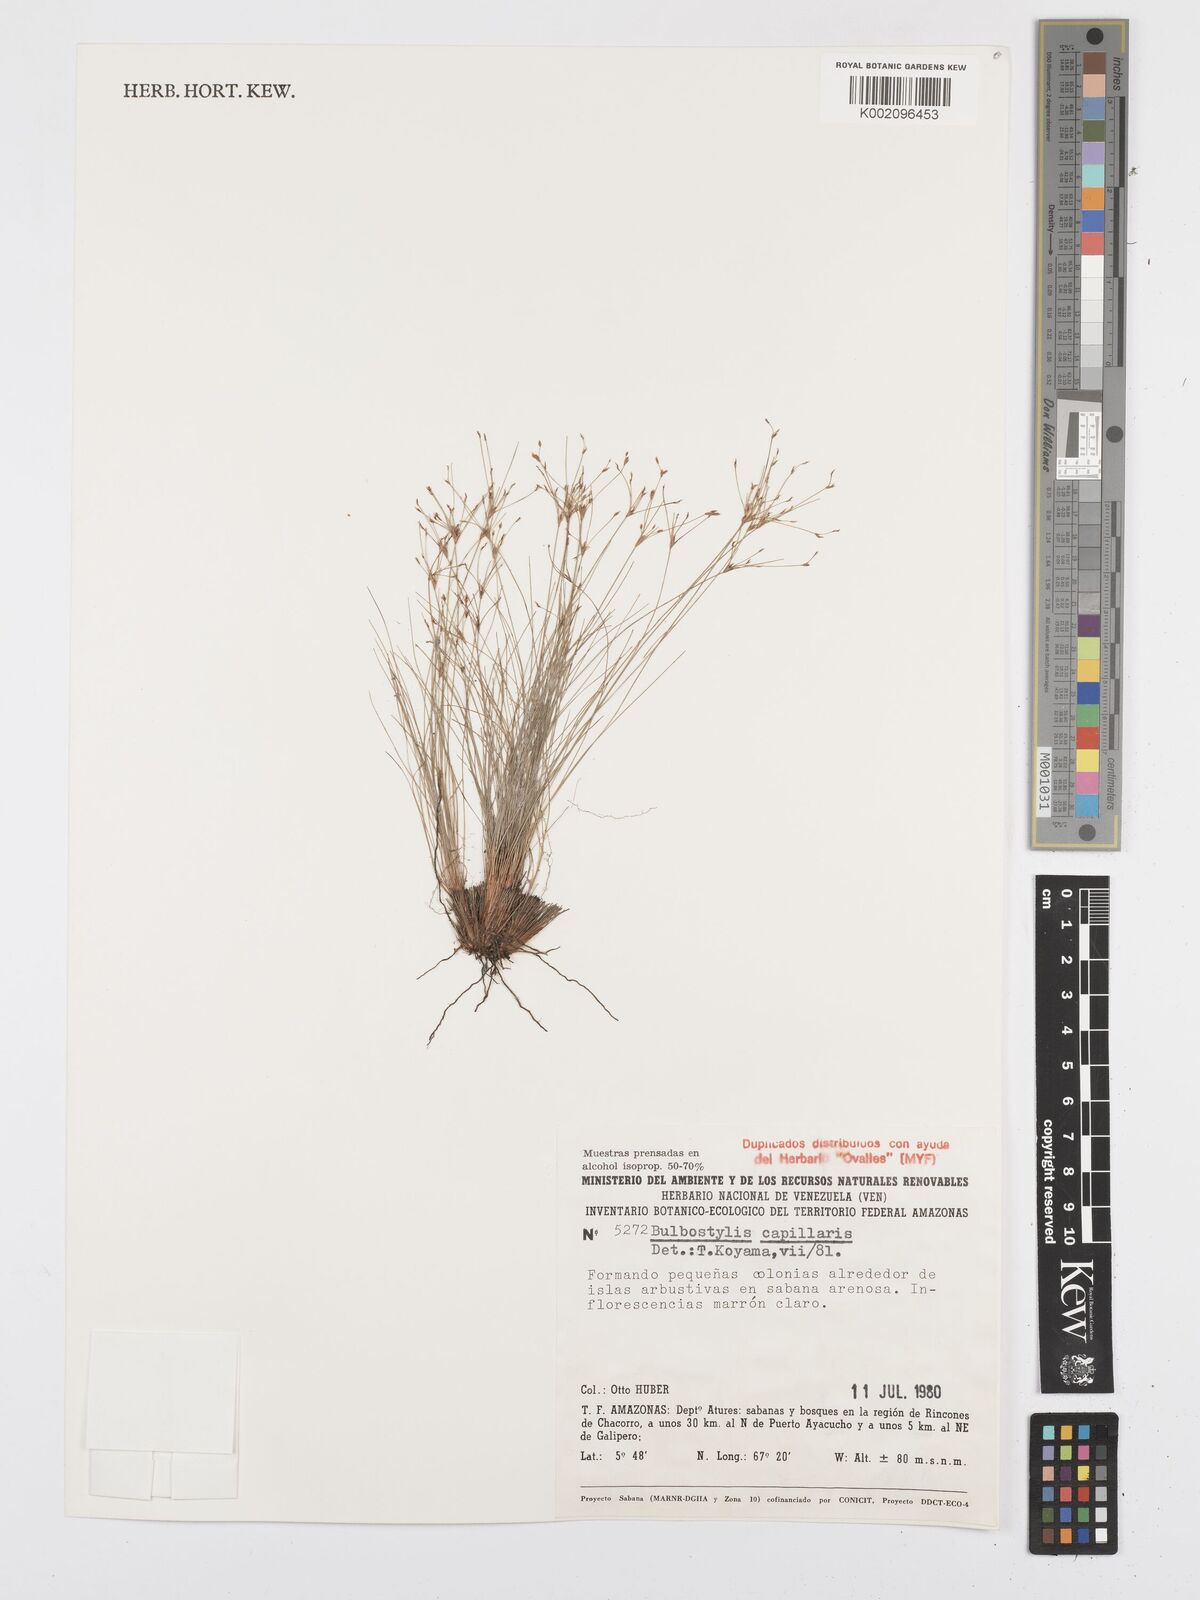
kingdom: Plantae
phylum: Tracheophyta
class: Liliopsida
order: Poales
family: Cyperaceae
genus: Bulbostylis
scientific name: Bulbostylis capillaris
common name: Densetuft hairsedge
